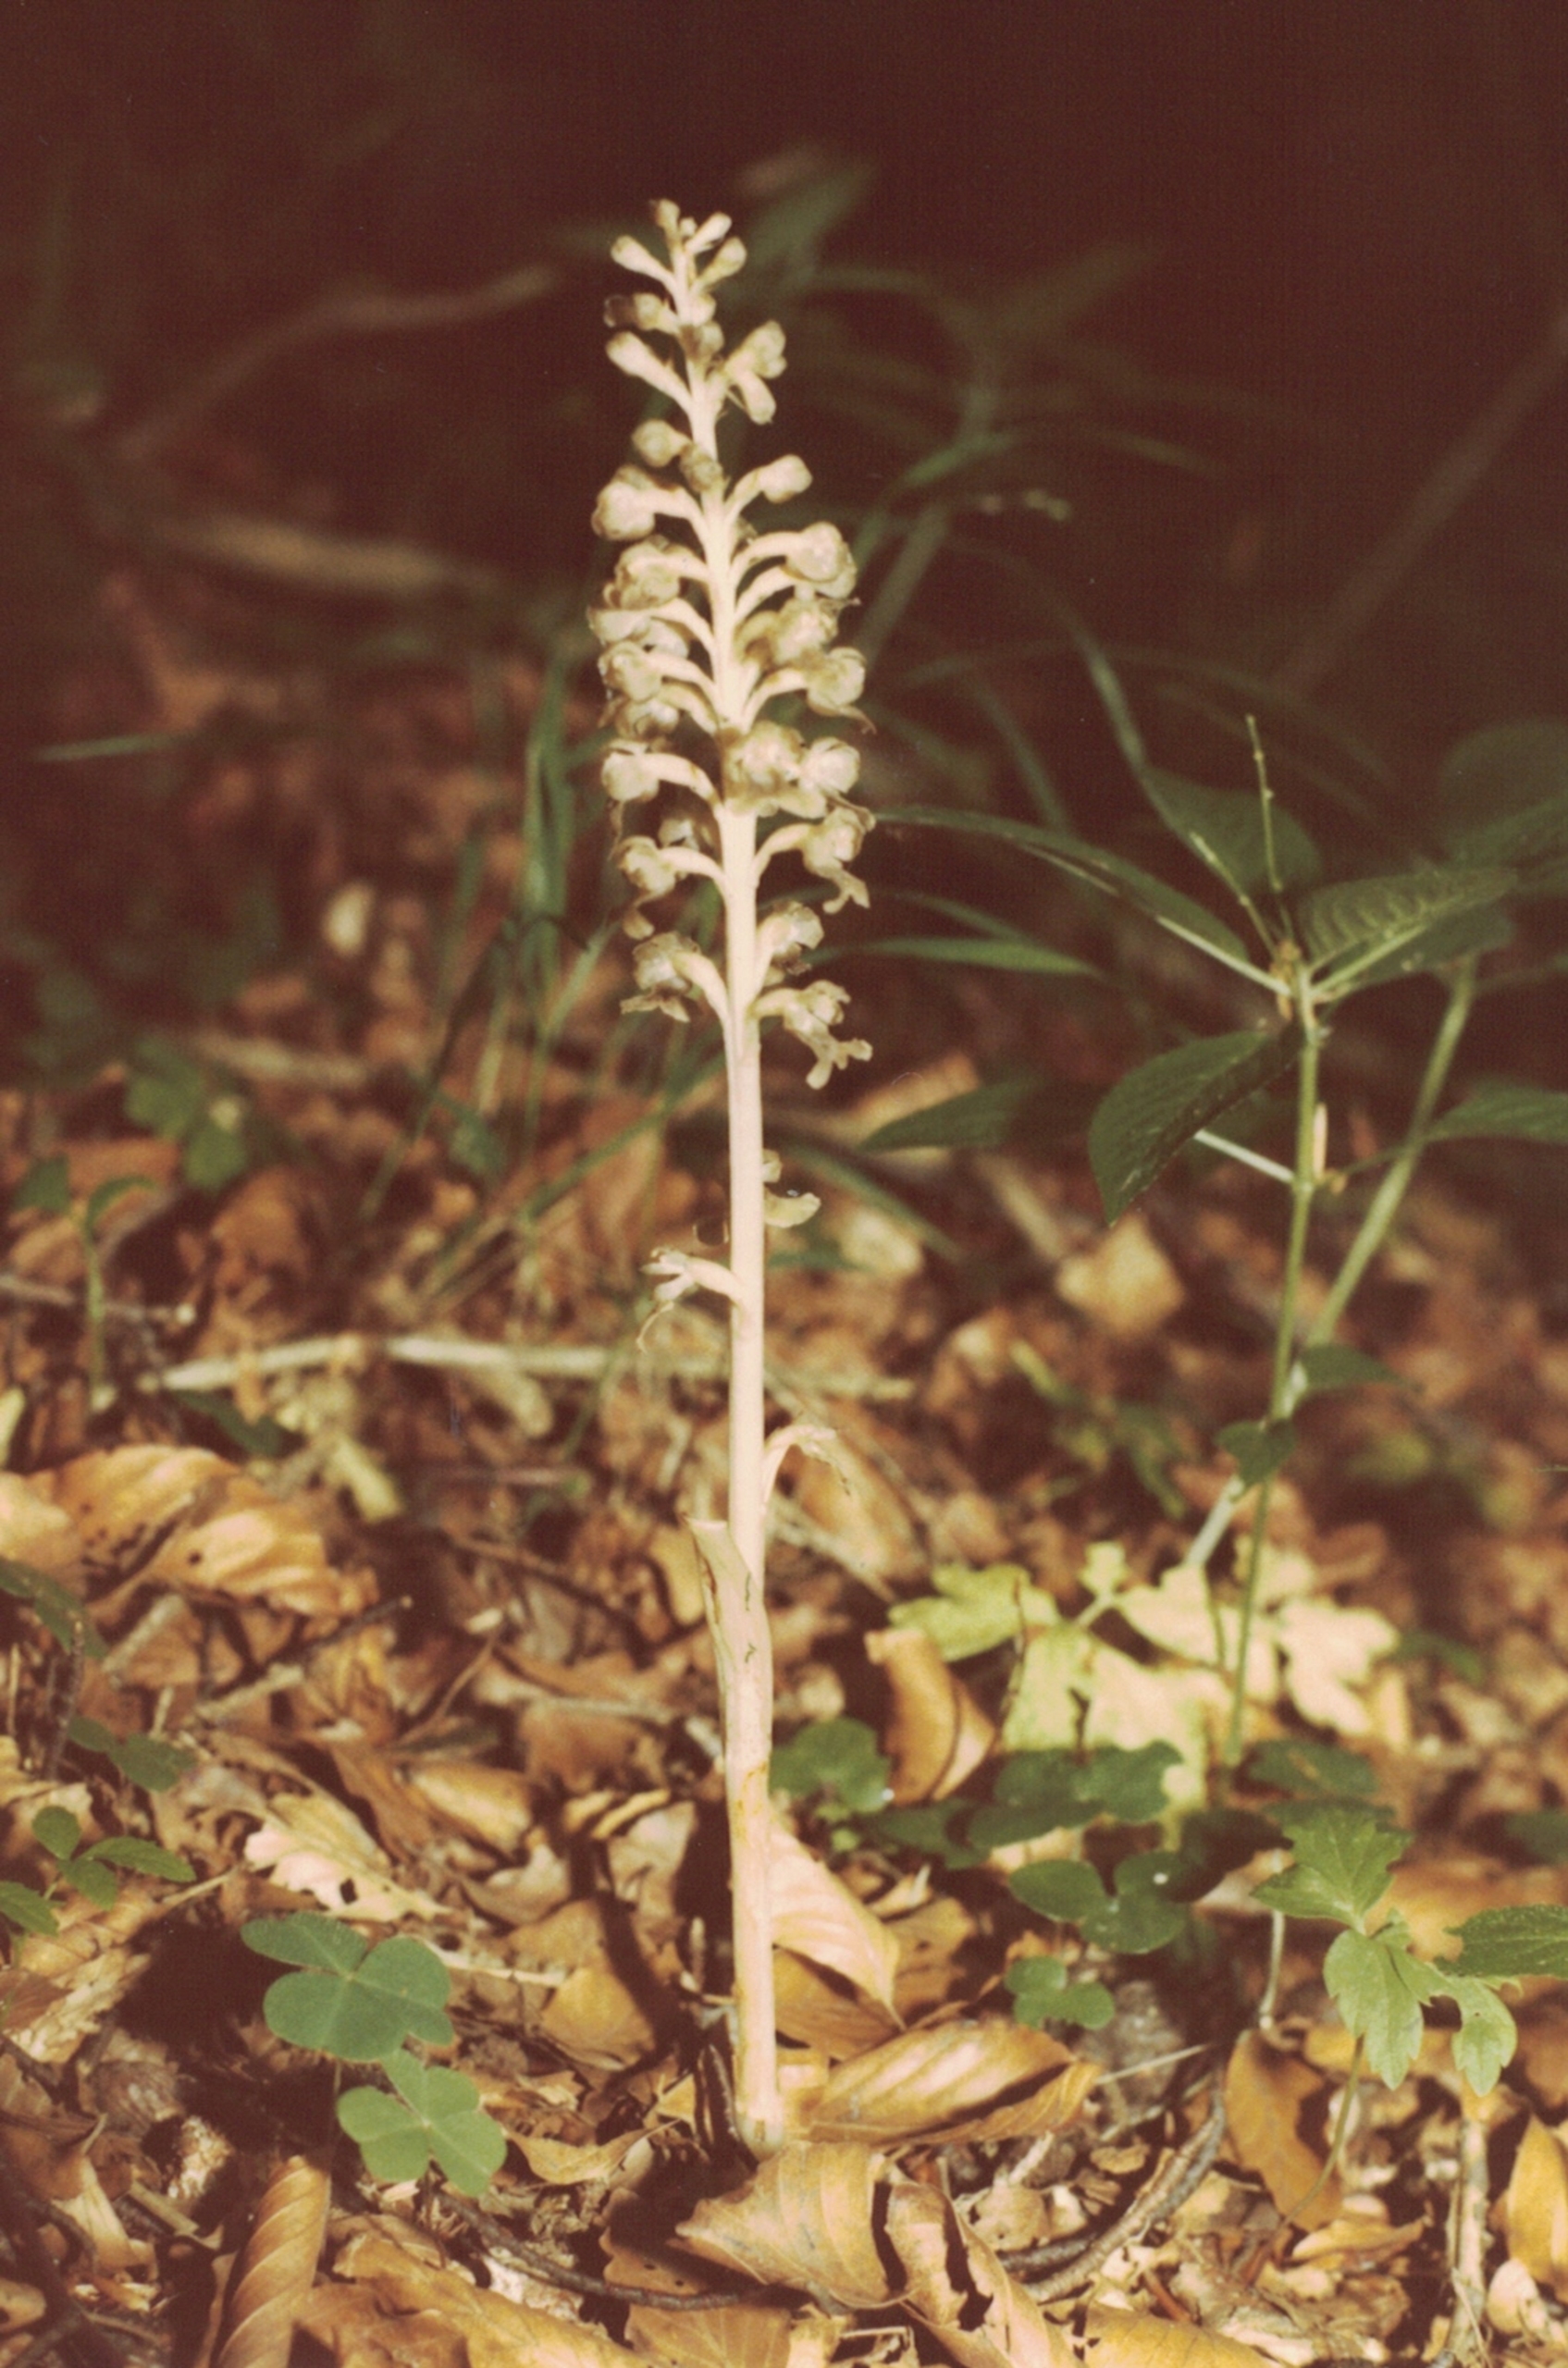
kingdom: Plantae
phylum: Tracheophyta
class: Liliopsida
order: Asparagales
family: Orchidaceae
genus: Neottia
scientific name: Neottia nidus-avis
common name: Rederod
